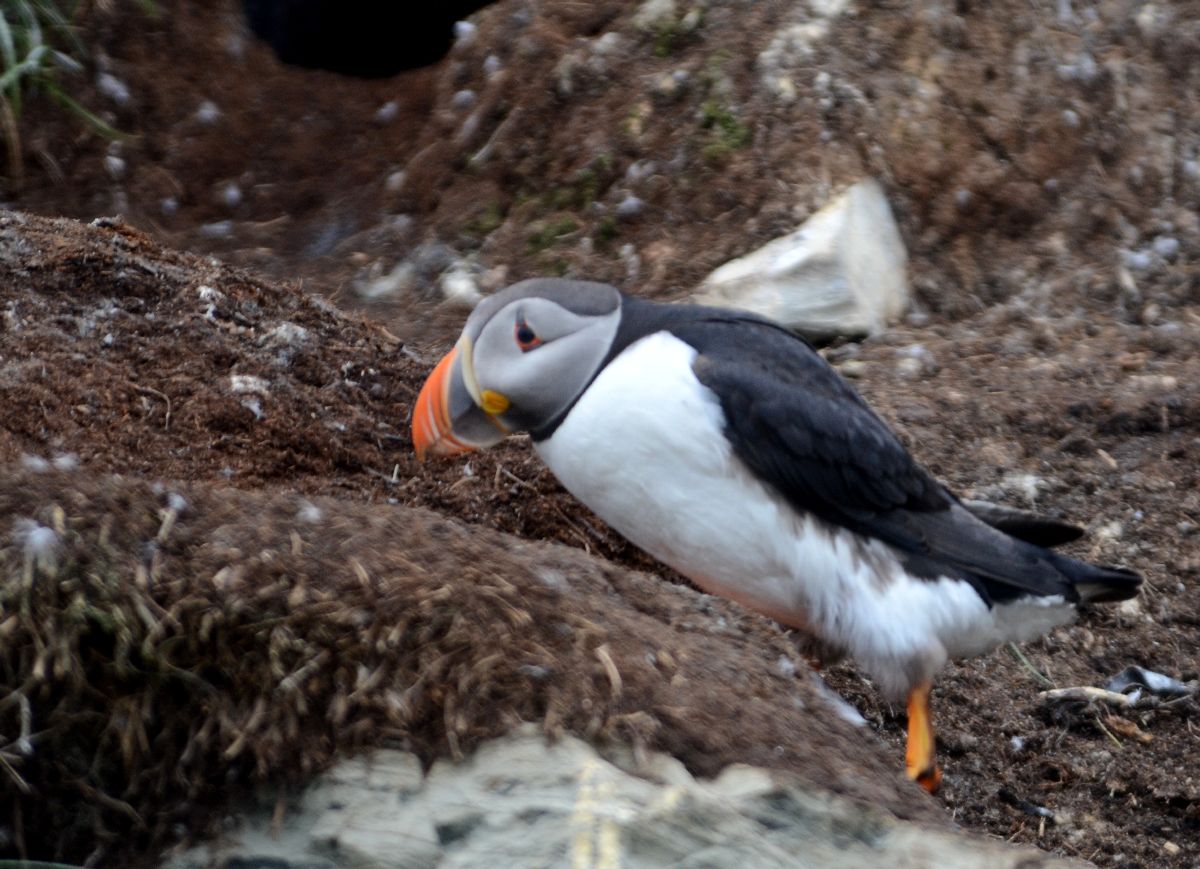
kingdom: Animalia
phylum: Chordata
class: Aves
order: Charadriiformes
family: Alcidae
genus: Fratercula
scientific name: Fratercula arctica
